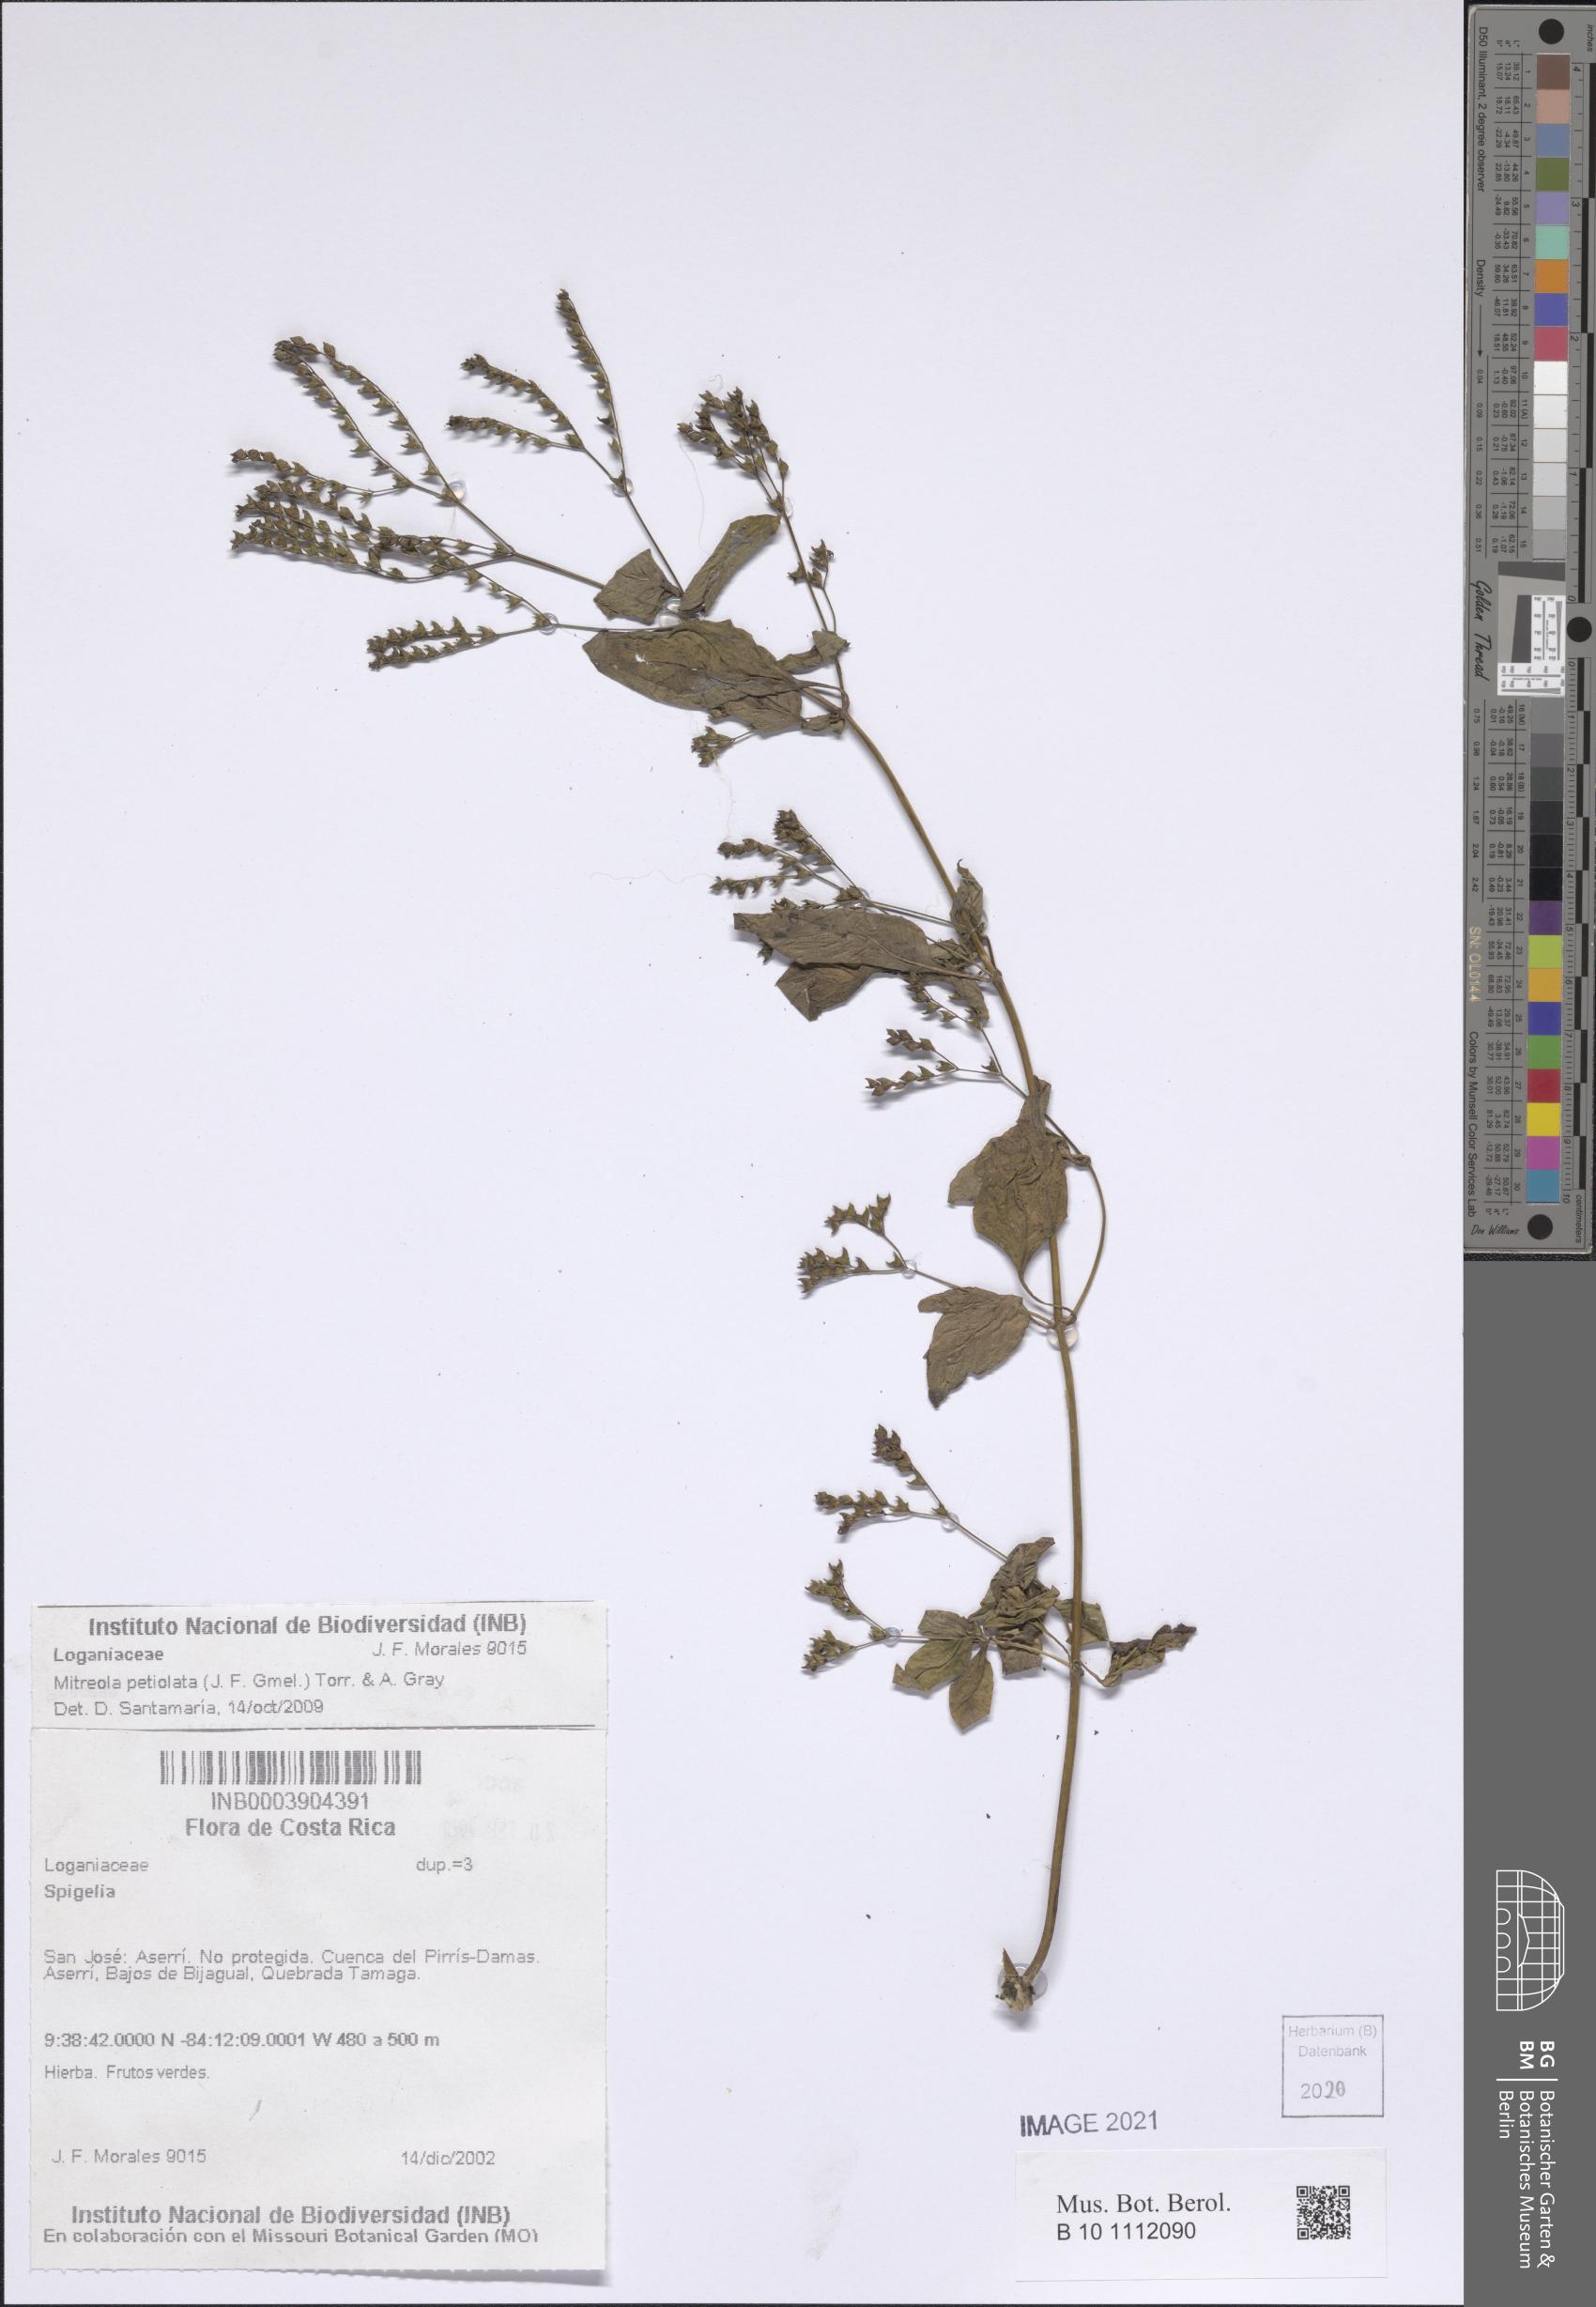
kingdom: Plantae
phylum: Tracheophyta
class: Magnoliopsida
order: Gentianales
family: Loganiaceae
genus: Mitreola
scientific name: Mitreola petiolata
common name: Lax hornpod
